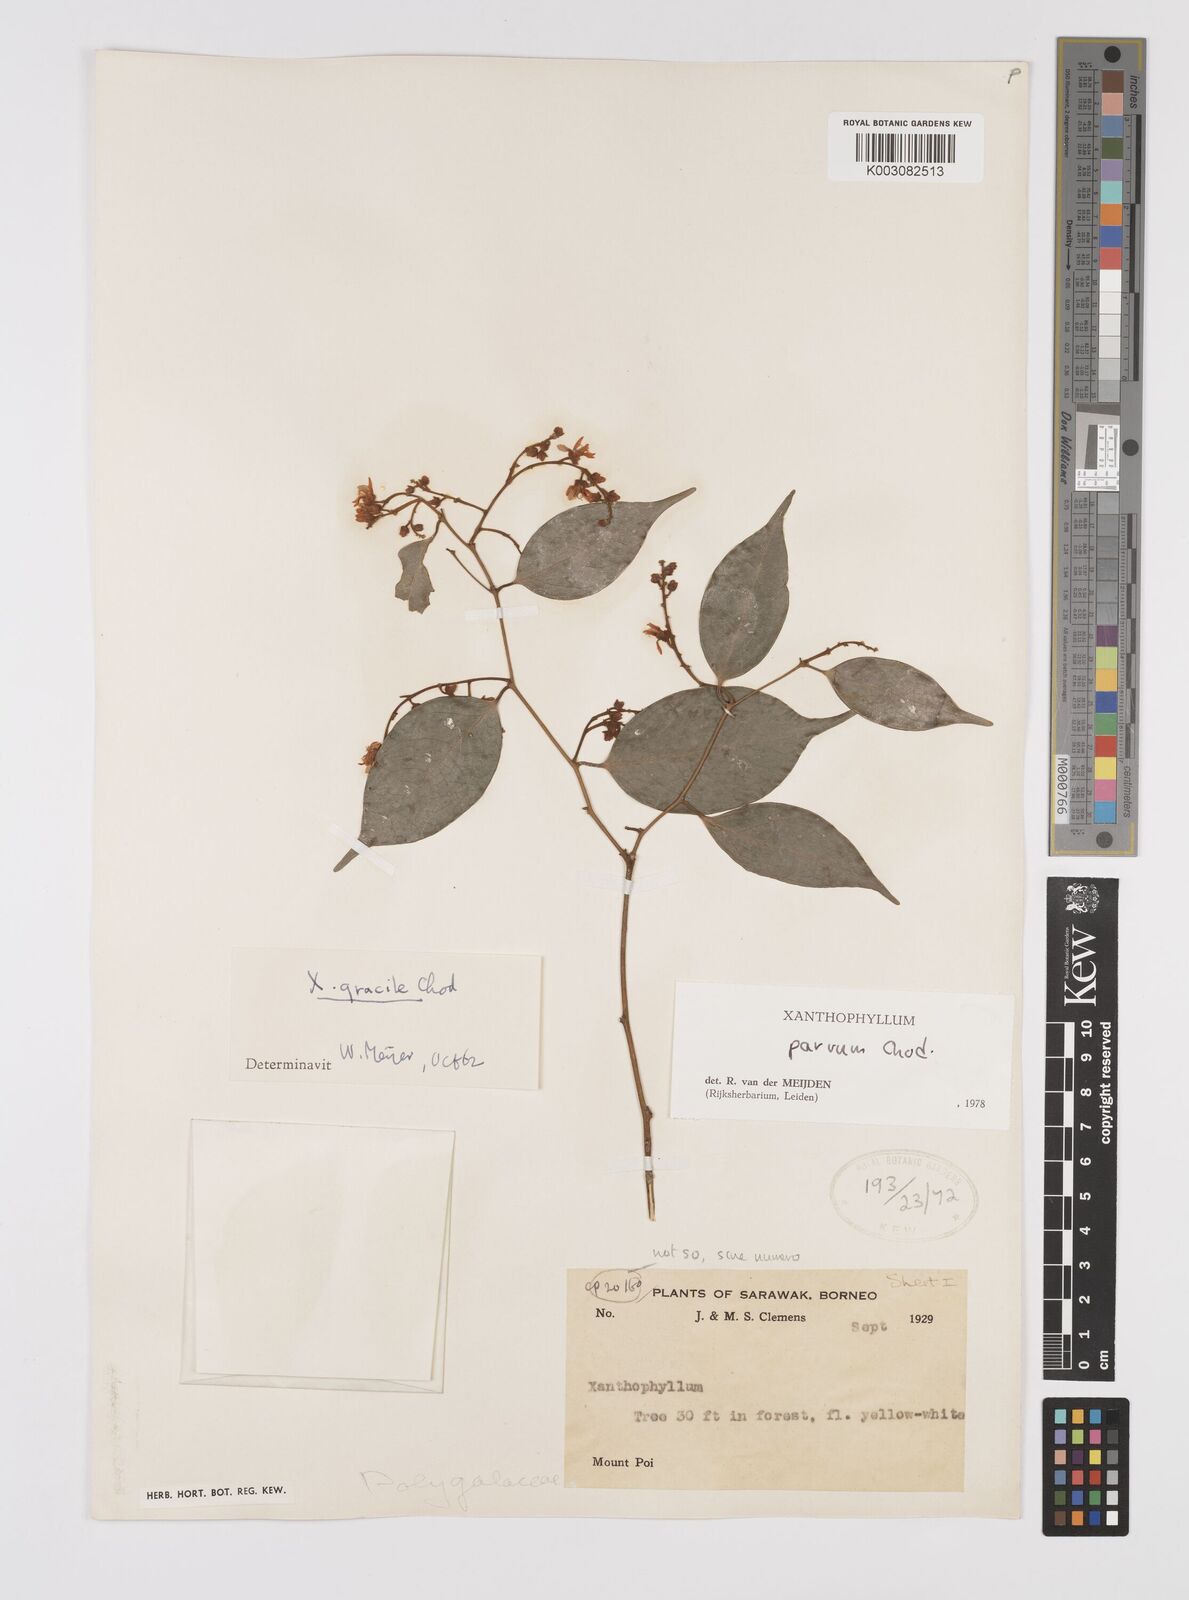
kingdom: Plantae
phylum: Tracheophyta
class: Magnoliopsida
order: Fabales
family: Polygalaceae
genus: Xanthophyllum
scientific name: Xanthophyllum griffithii
